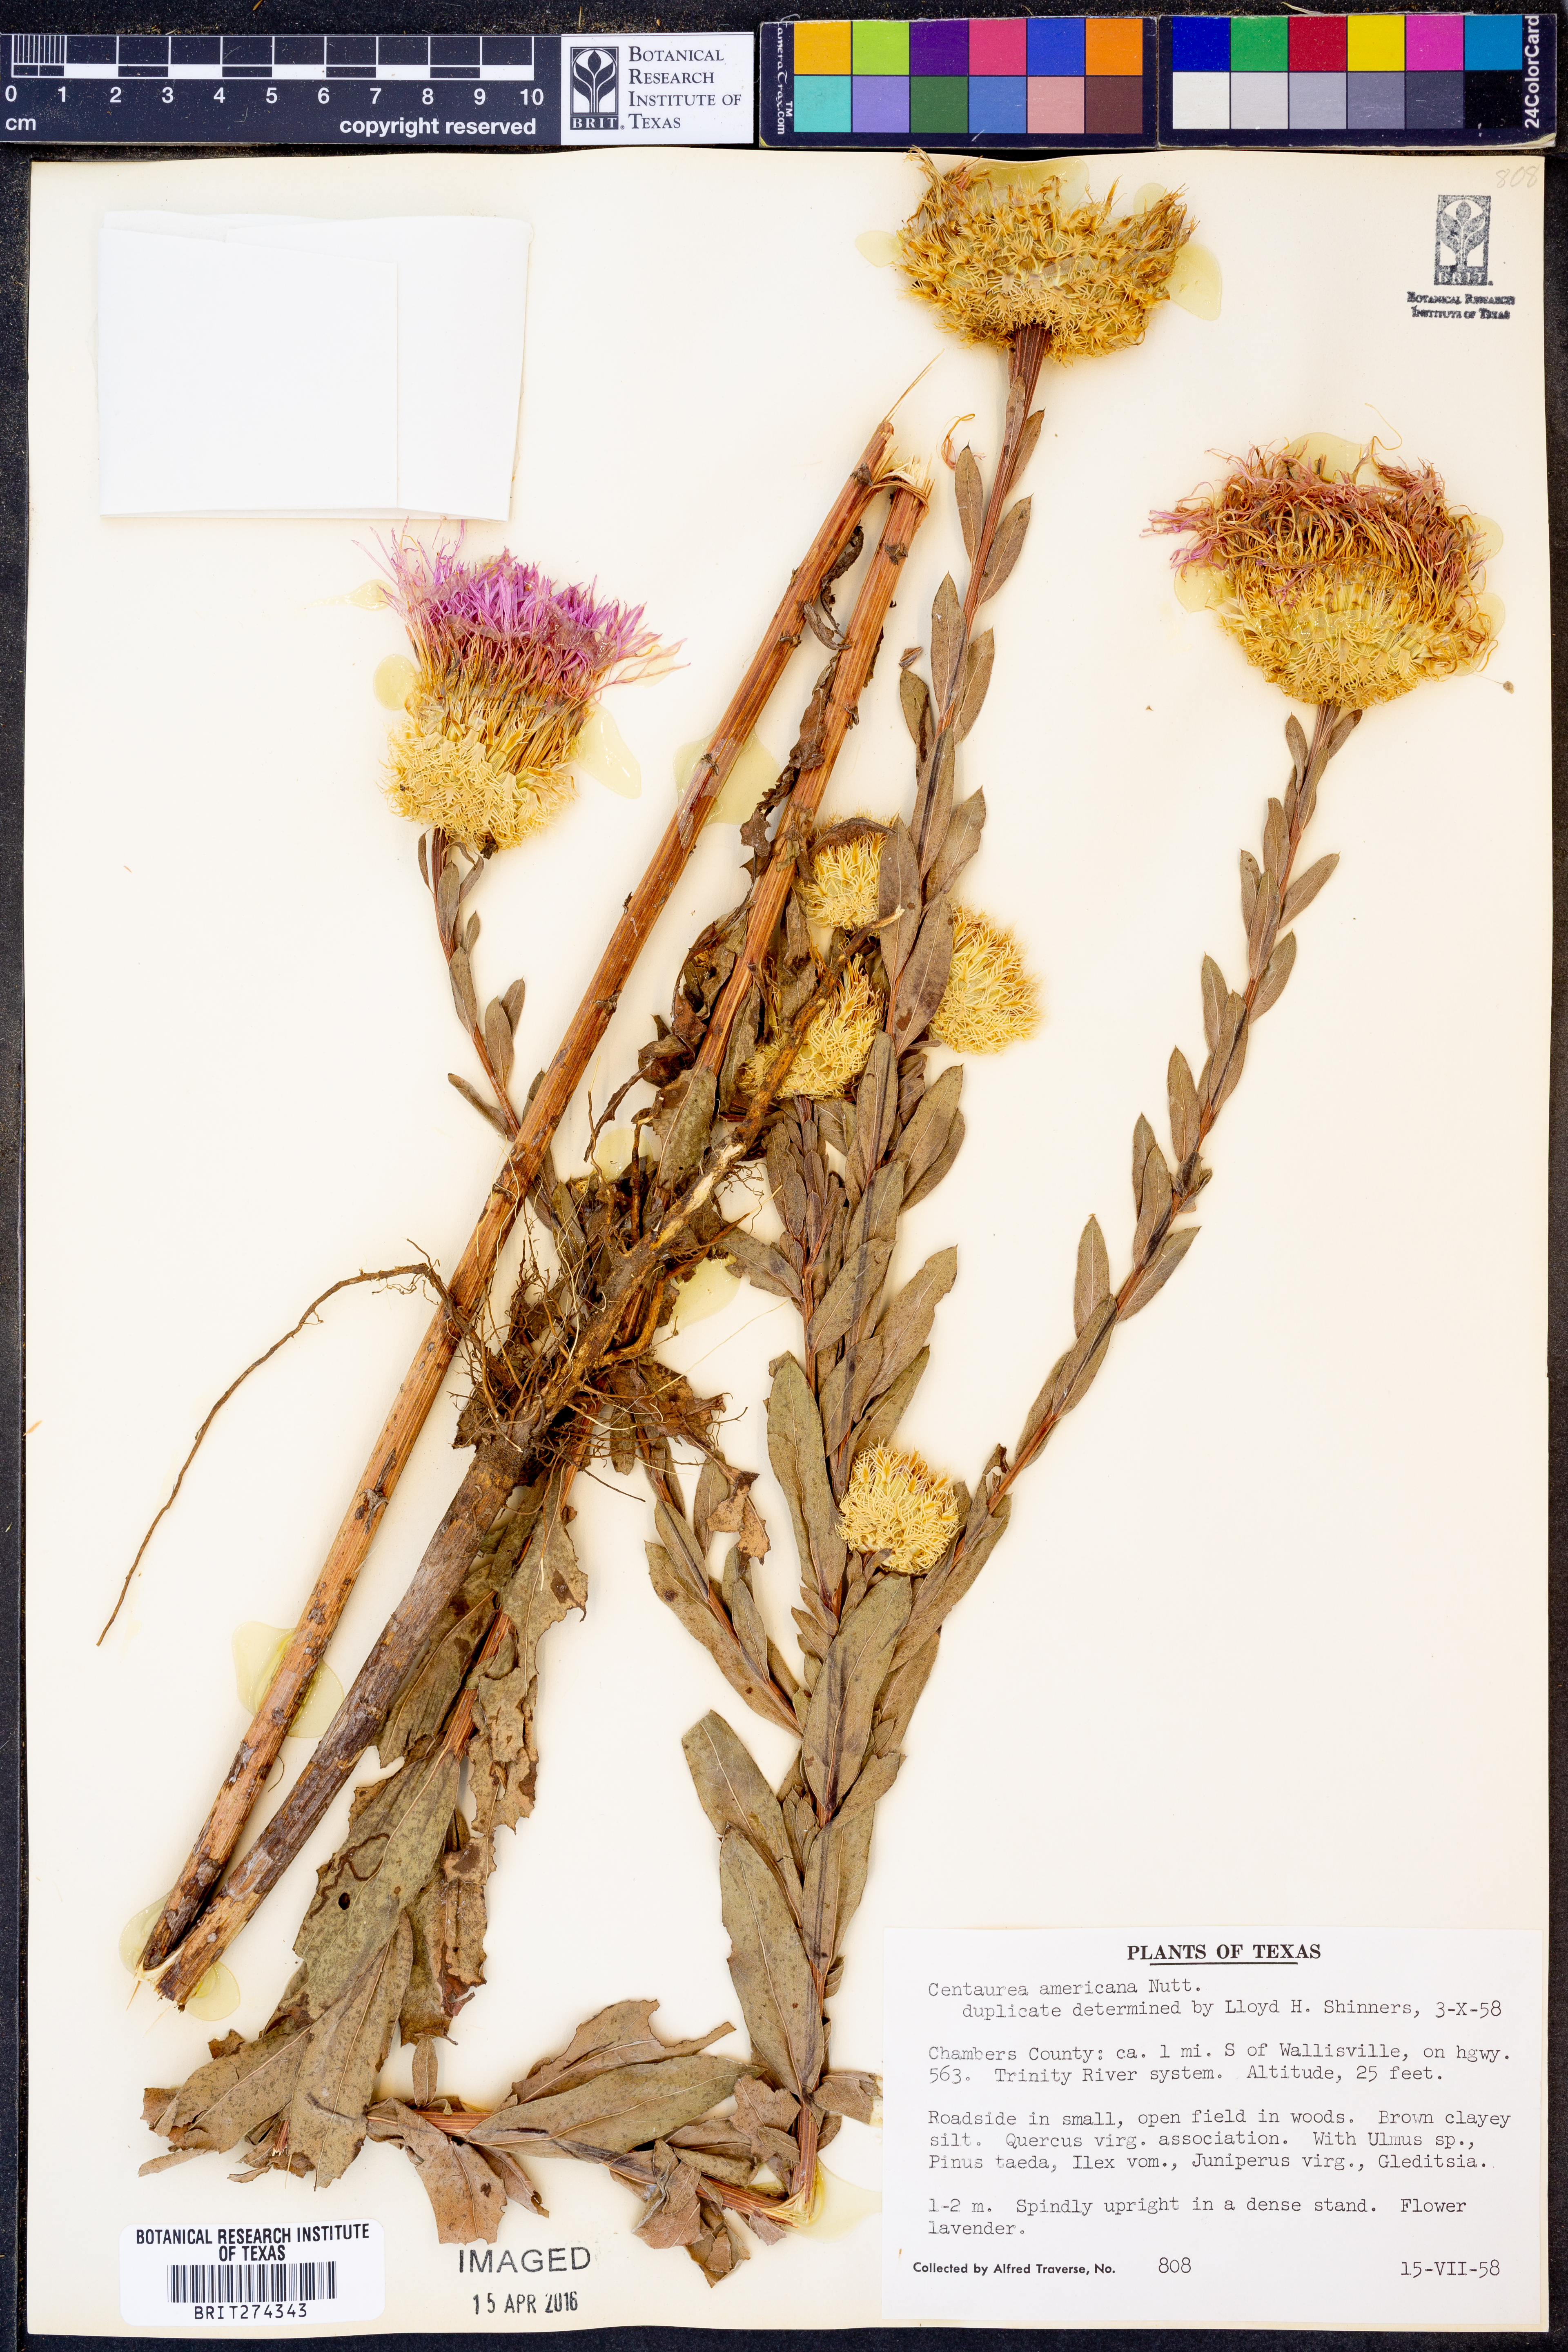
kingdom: Plantae
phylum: Tracheophyta
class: Magnoliopsida
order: Asterales
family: Asteraceae
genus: Plectocephalus
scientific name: Plectocephalus americanus
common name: American basket-flower
